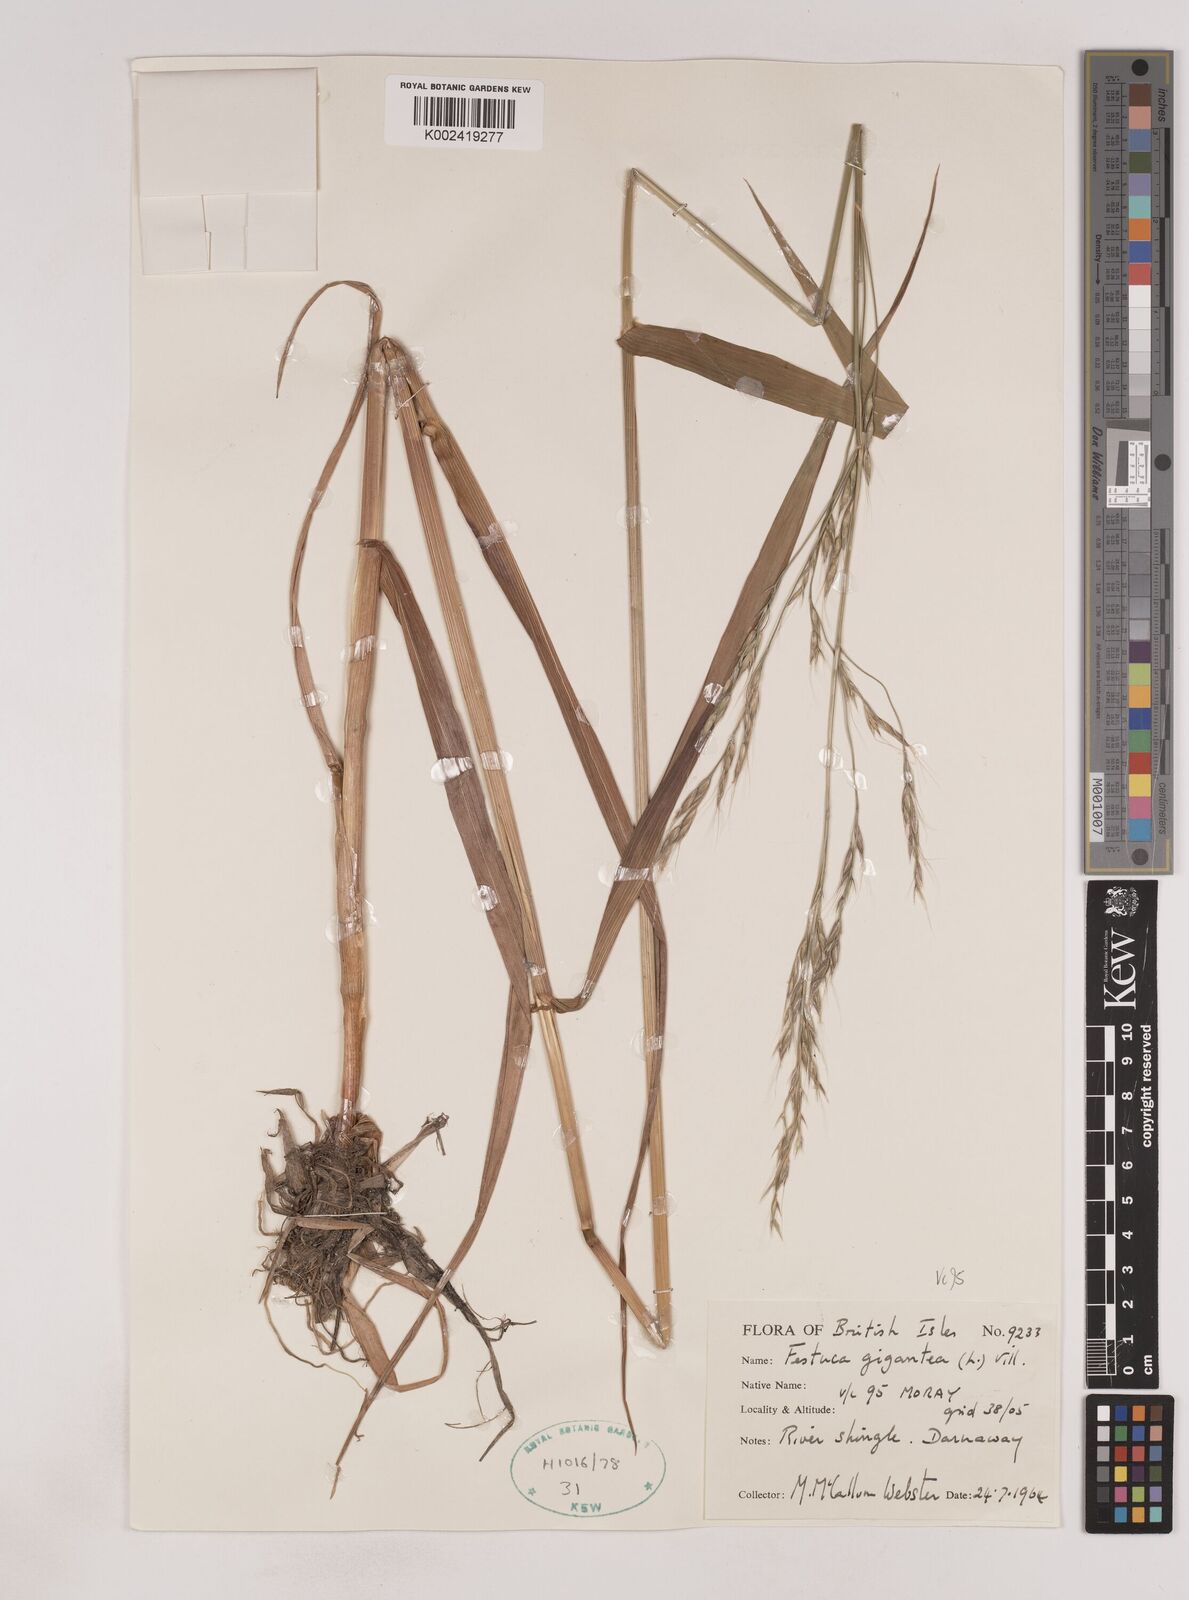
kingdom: Plantae
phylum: Tracheophyta
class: Liliopsida
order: Poales
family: Poaceae
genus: Lolium
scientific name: Lolium giganteum
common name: Giant fescue
